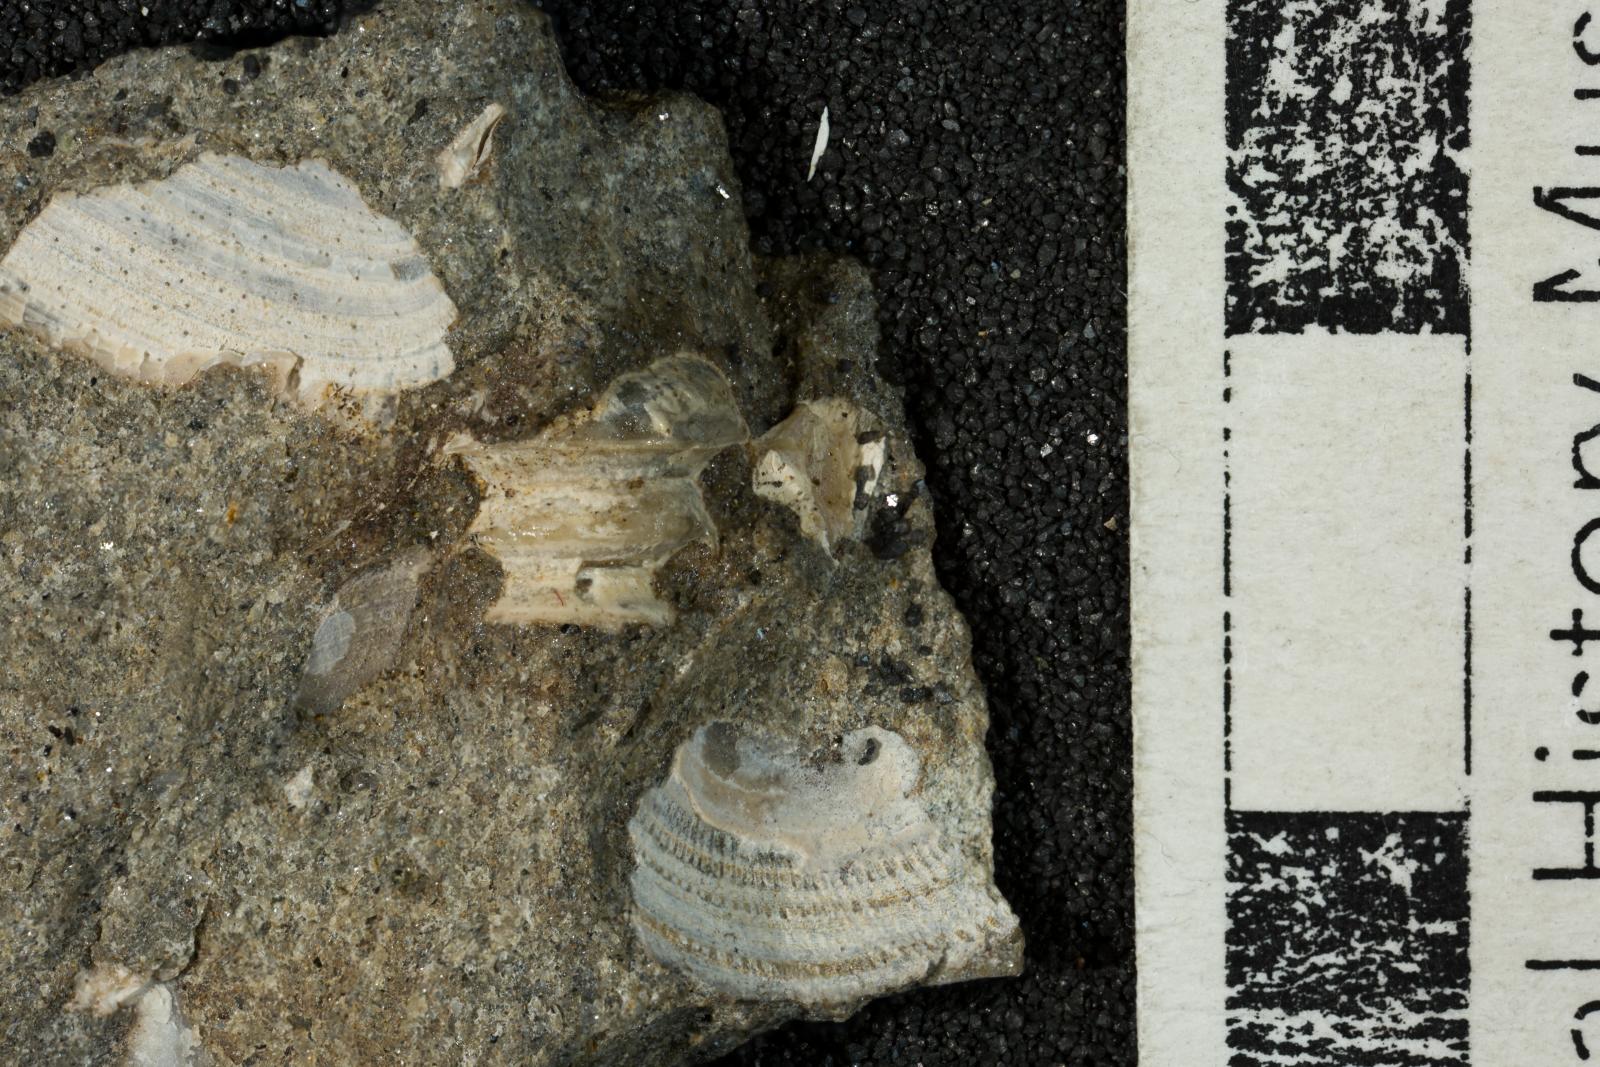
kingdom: Animalia
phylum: Mollusca
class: Gastropoda
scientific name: Gastropoda
